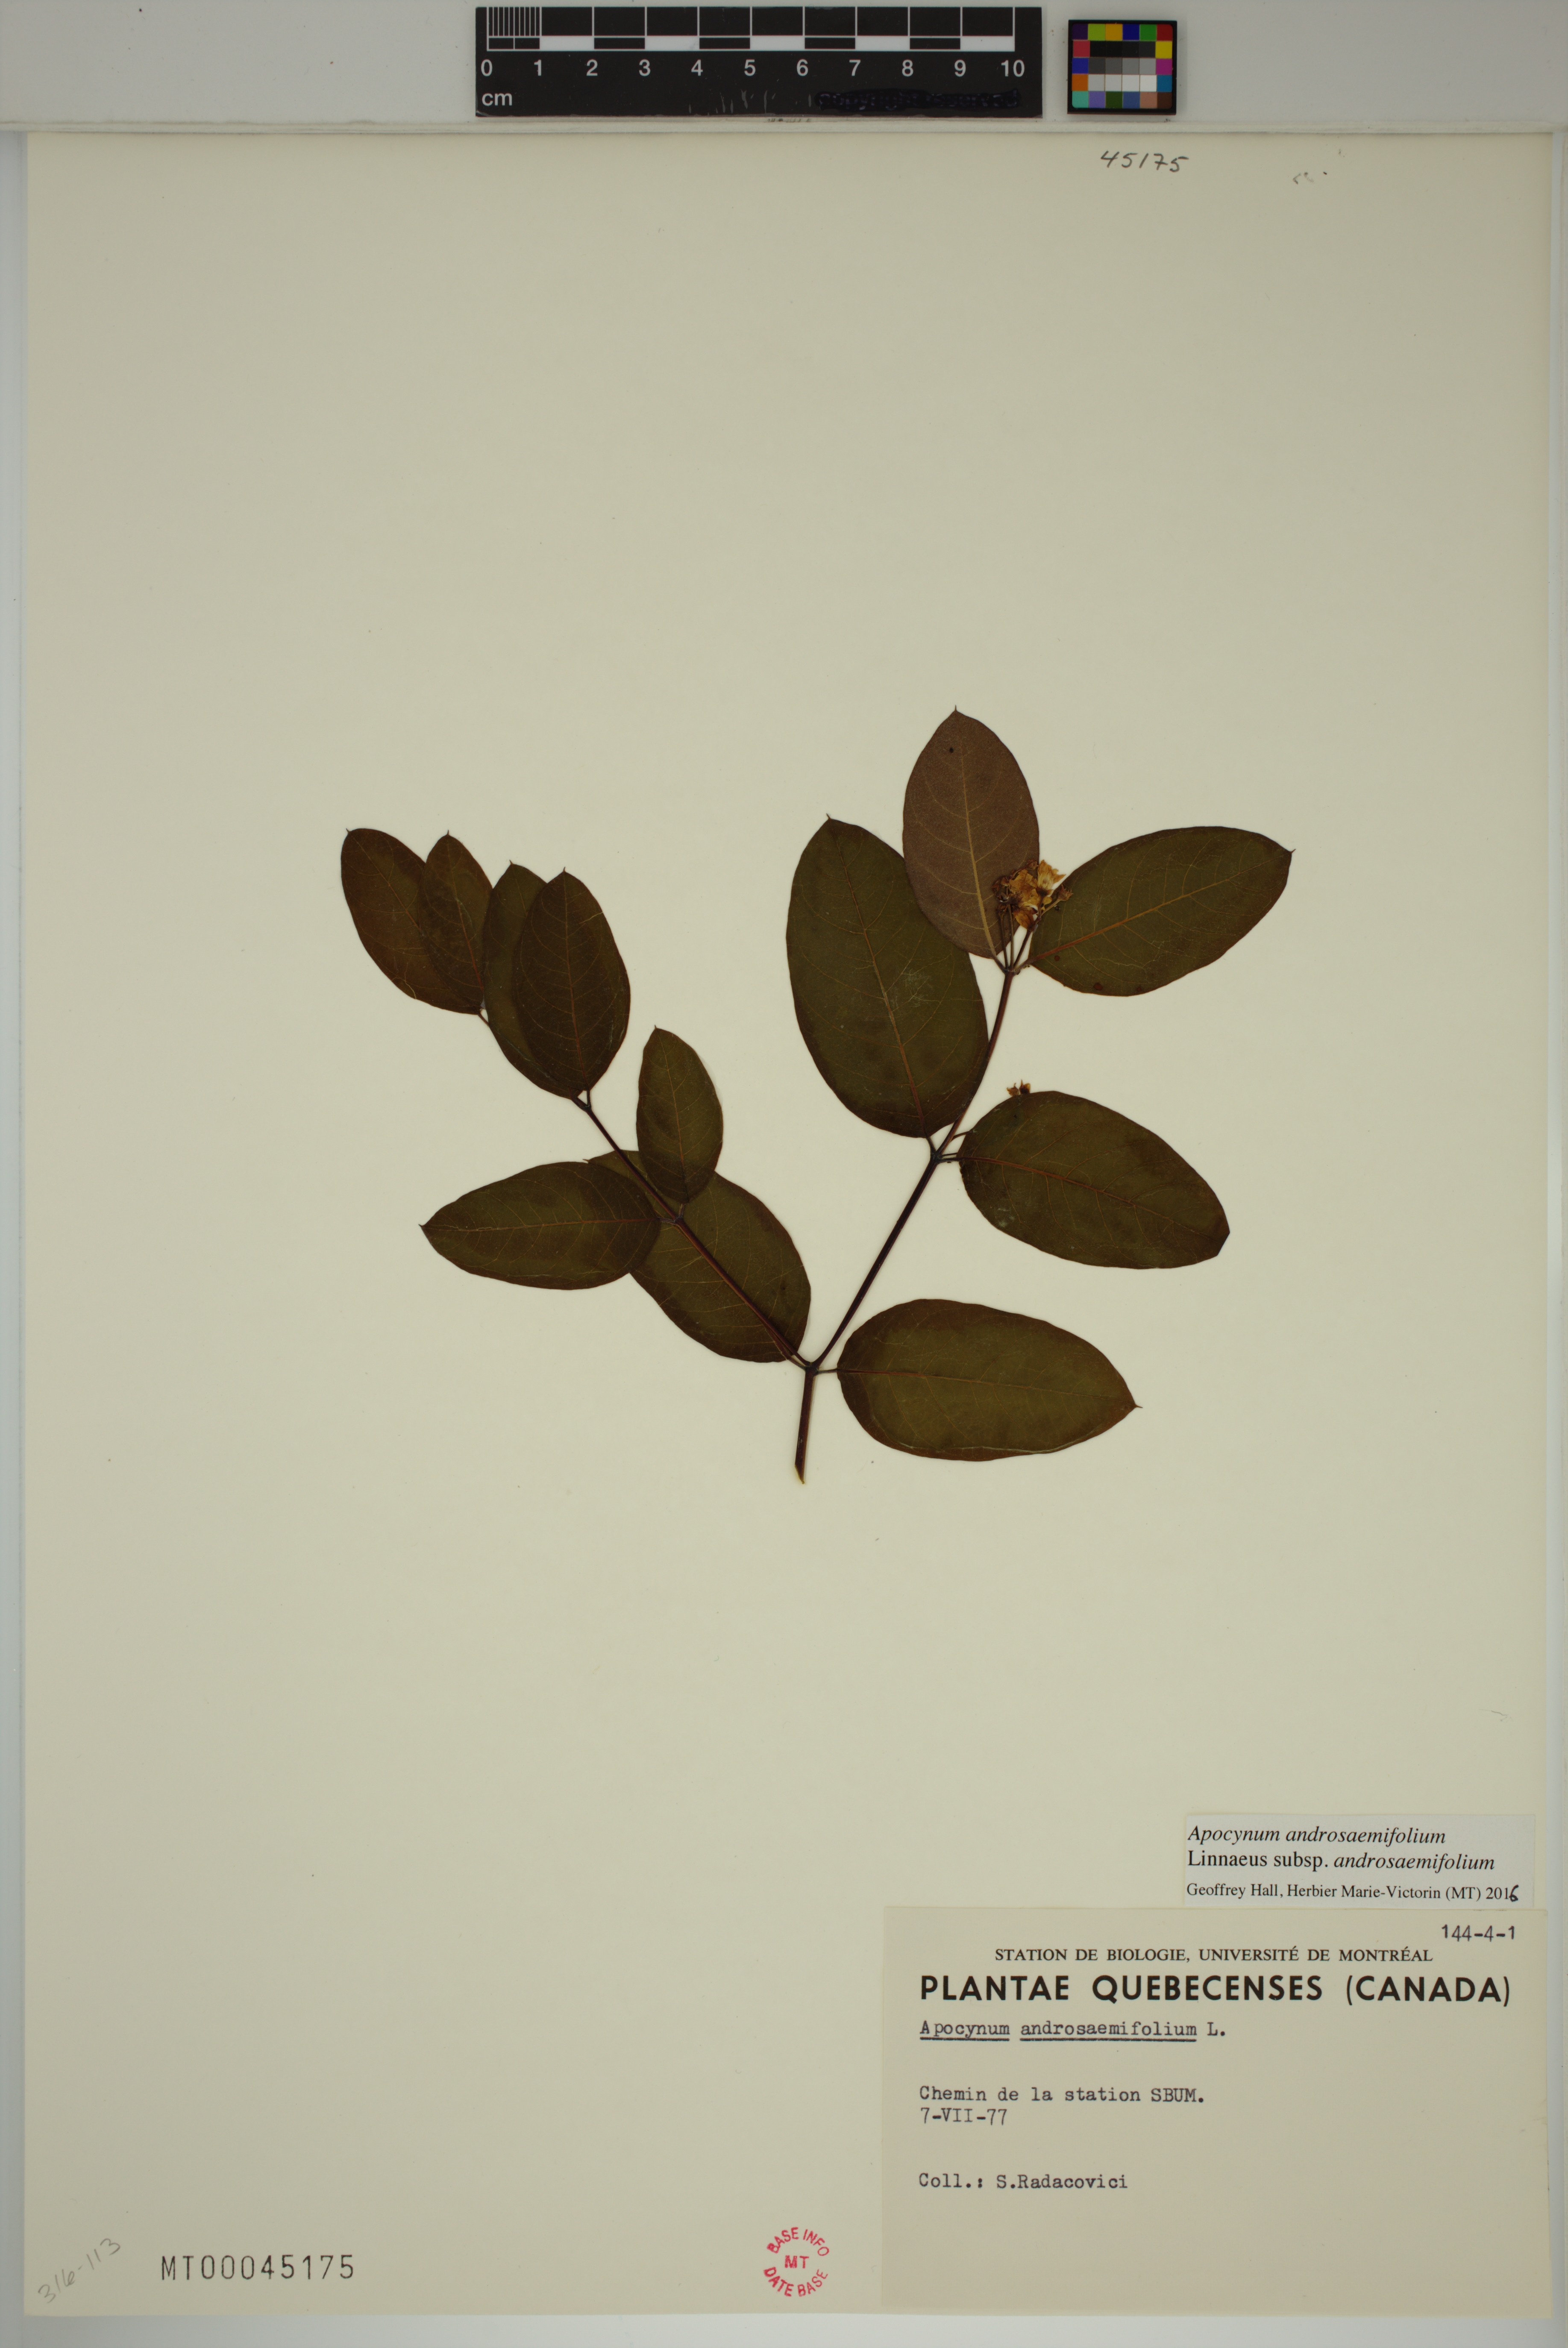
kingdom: Plantae
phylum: Tracheophyta
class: Magnoliopsida
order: Gentianales
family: Apocynaceae
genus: Apocynum
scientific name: Apocynum androsaemifolium
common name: Spreading dogbane
